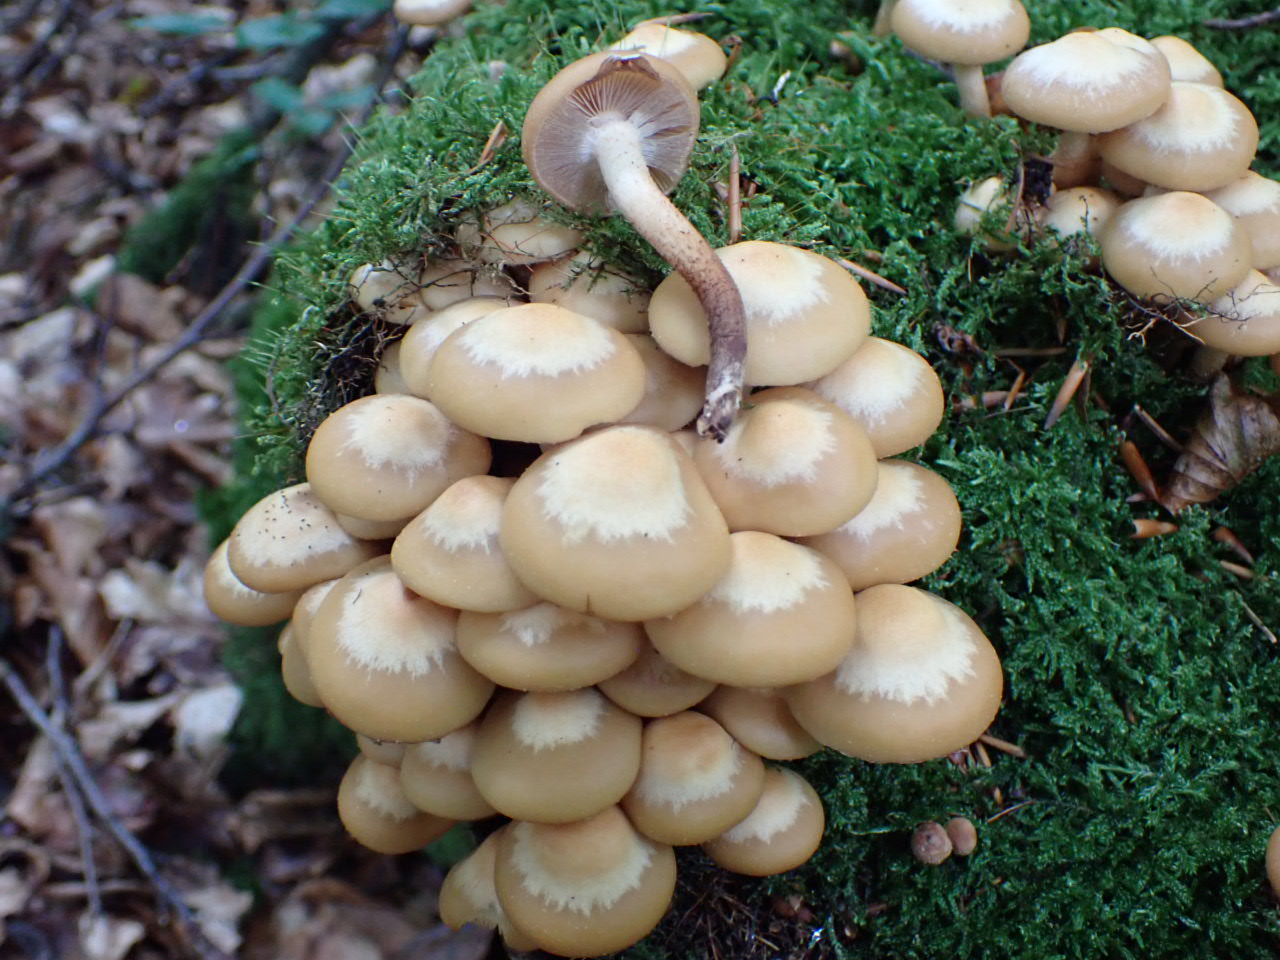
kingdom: Fungi
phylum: Basidiomycota
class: Agaricomycetes
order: Agaricales
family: Strophariaceae
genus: Kuehneromyces
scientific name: Kuehneromyces mutabilis
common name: foranderlig skælhat
